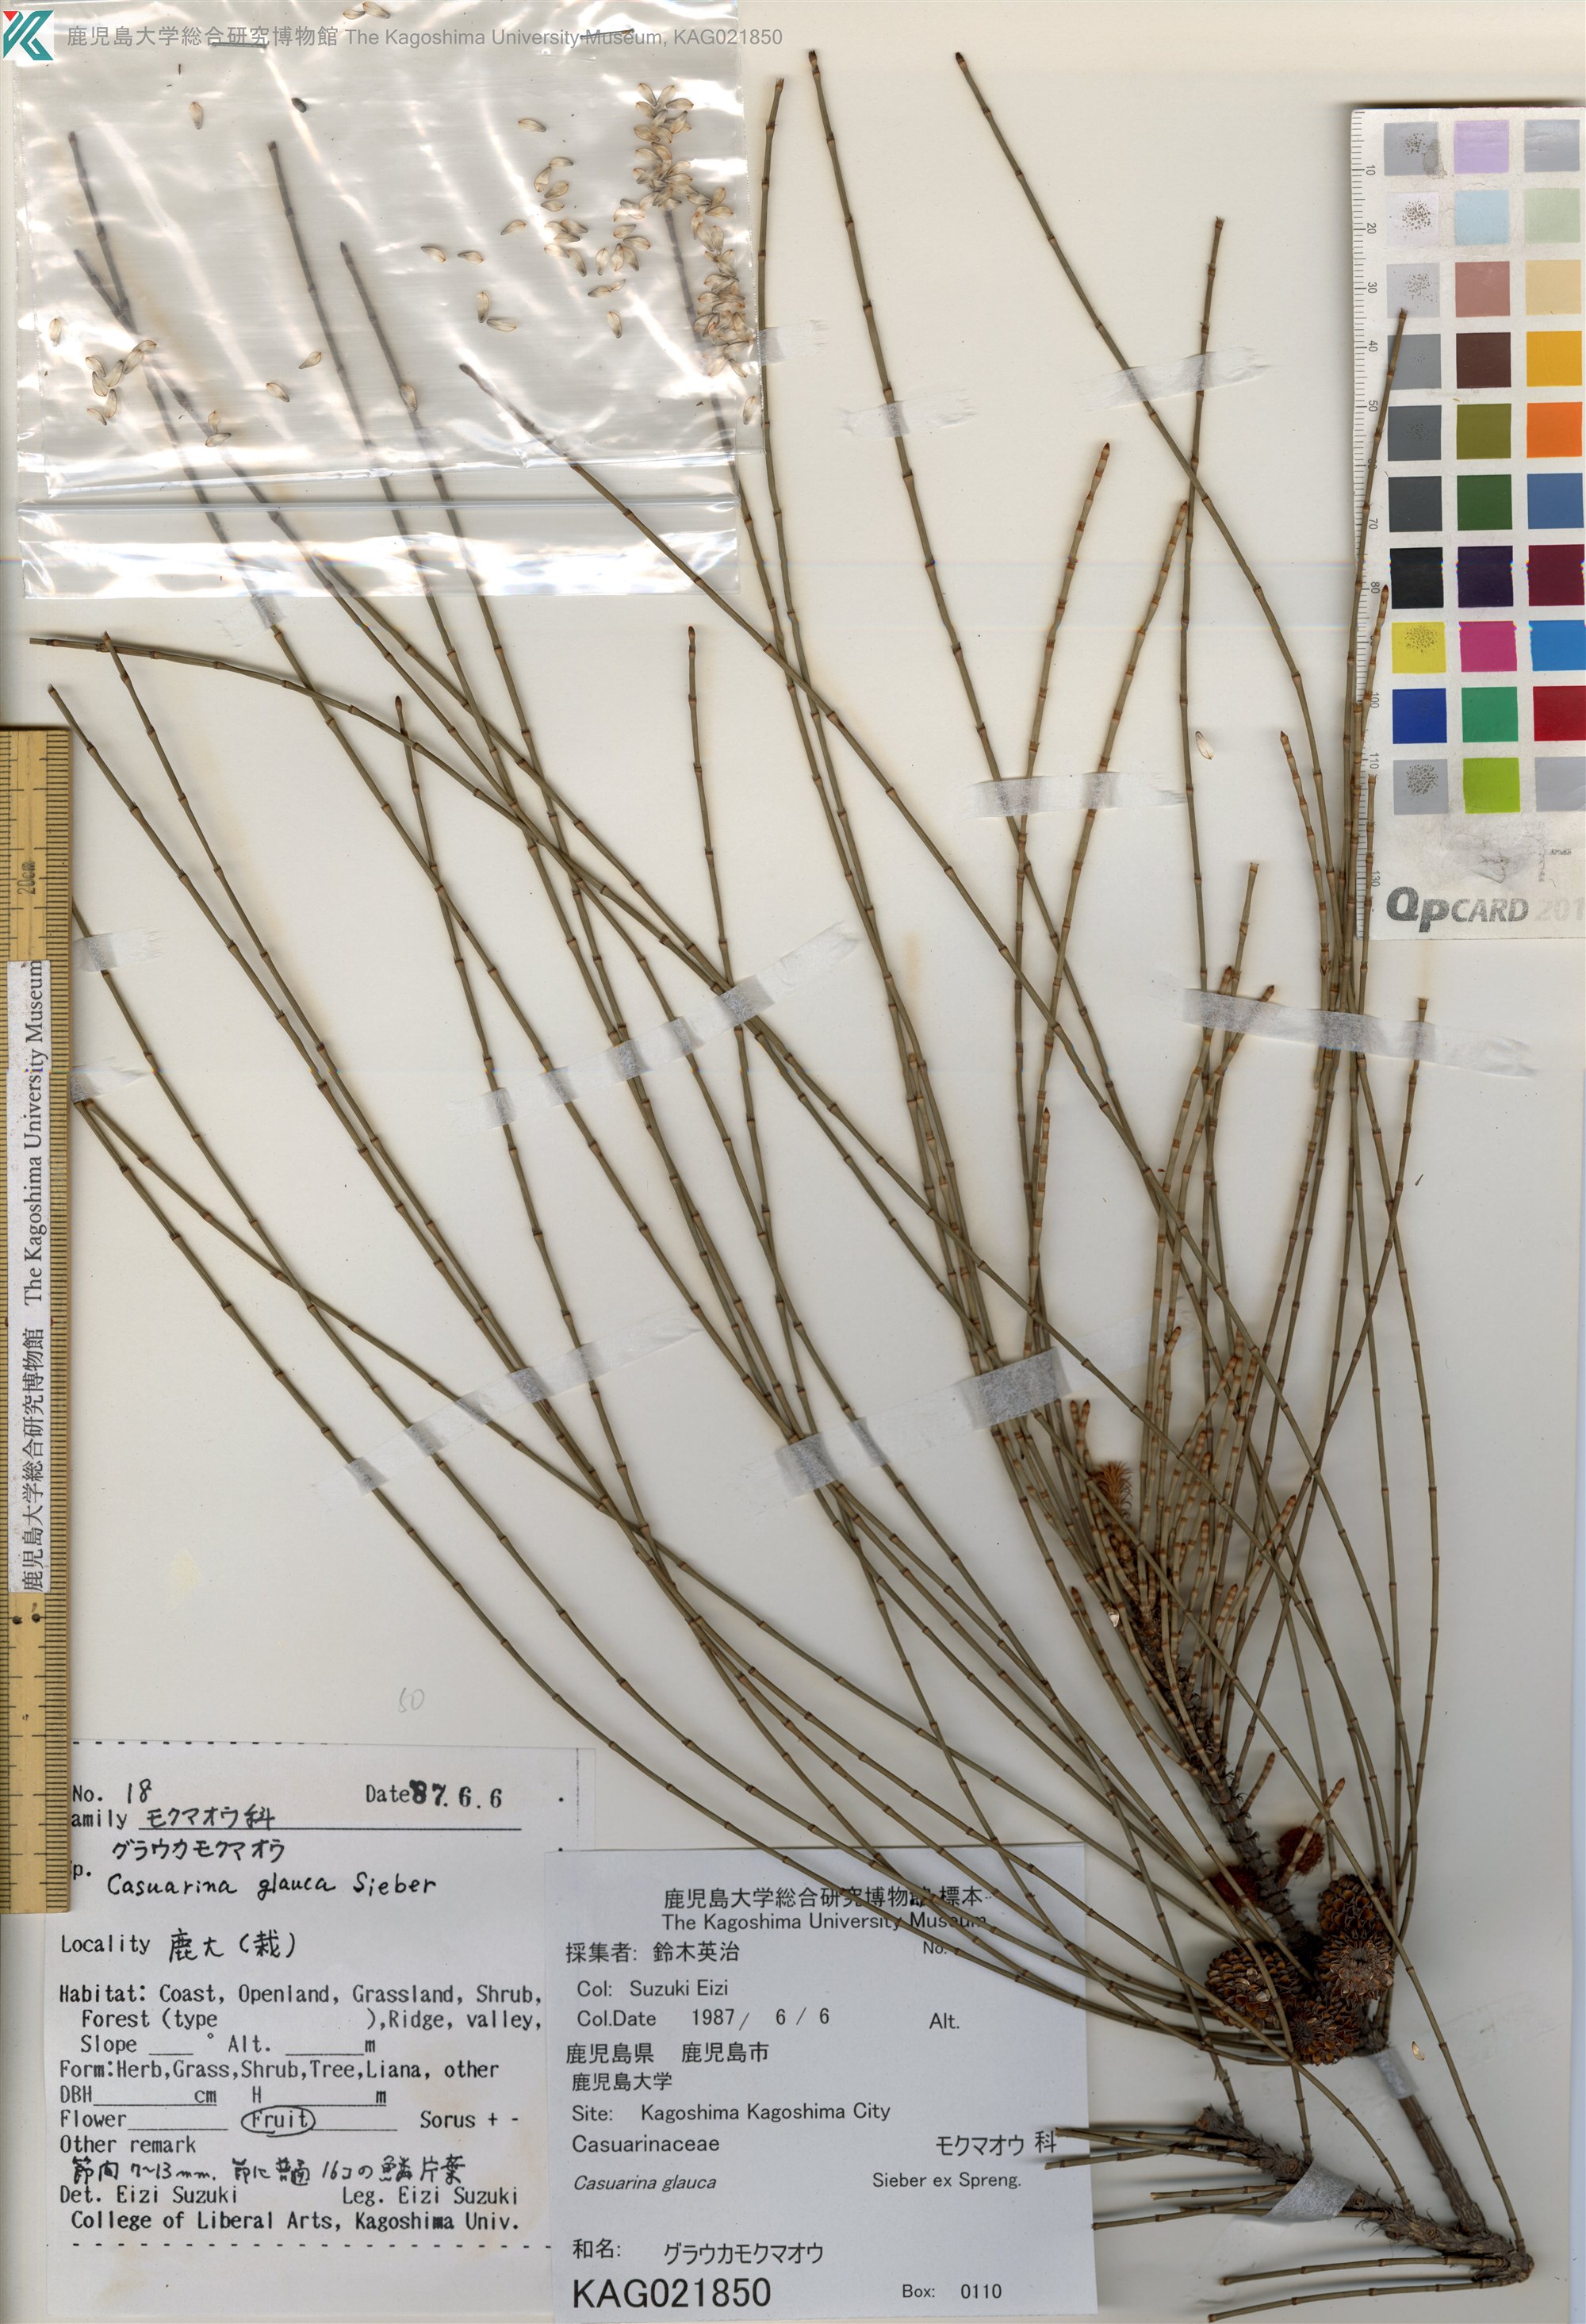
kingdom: Plantae
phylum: Tracheophyta
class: Magnoliopsida
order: Fagales
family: Casuarinaceae
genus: Casuarina
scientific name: Casuarina glauca
